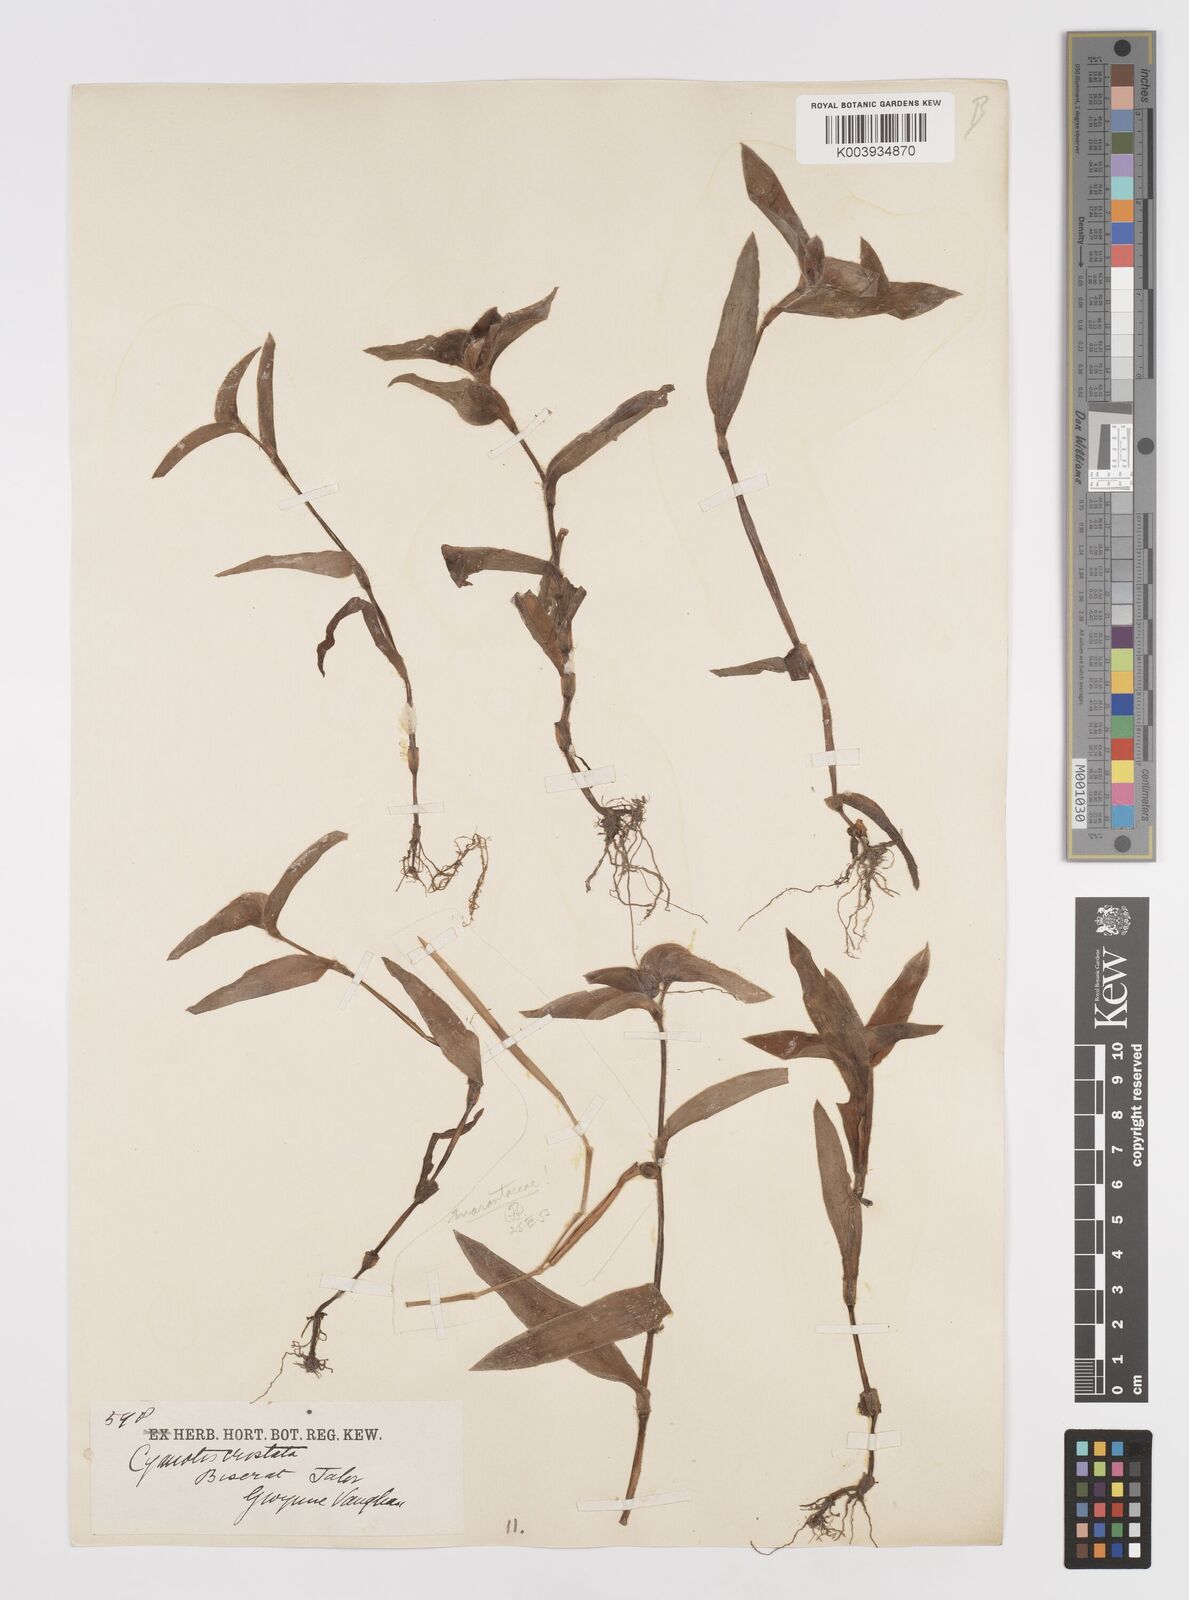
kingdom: Plantae
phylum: Tracheophyta
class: Liliopsida
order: Commelinales
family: Commelinaceae
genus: Cyanotis
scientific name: Cyanotis cristata
